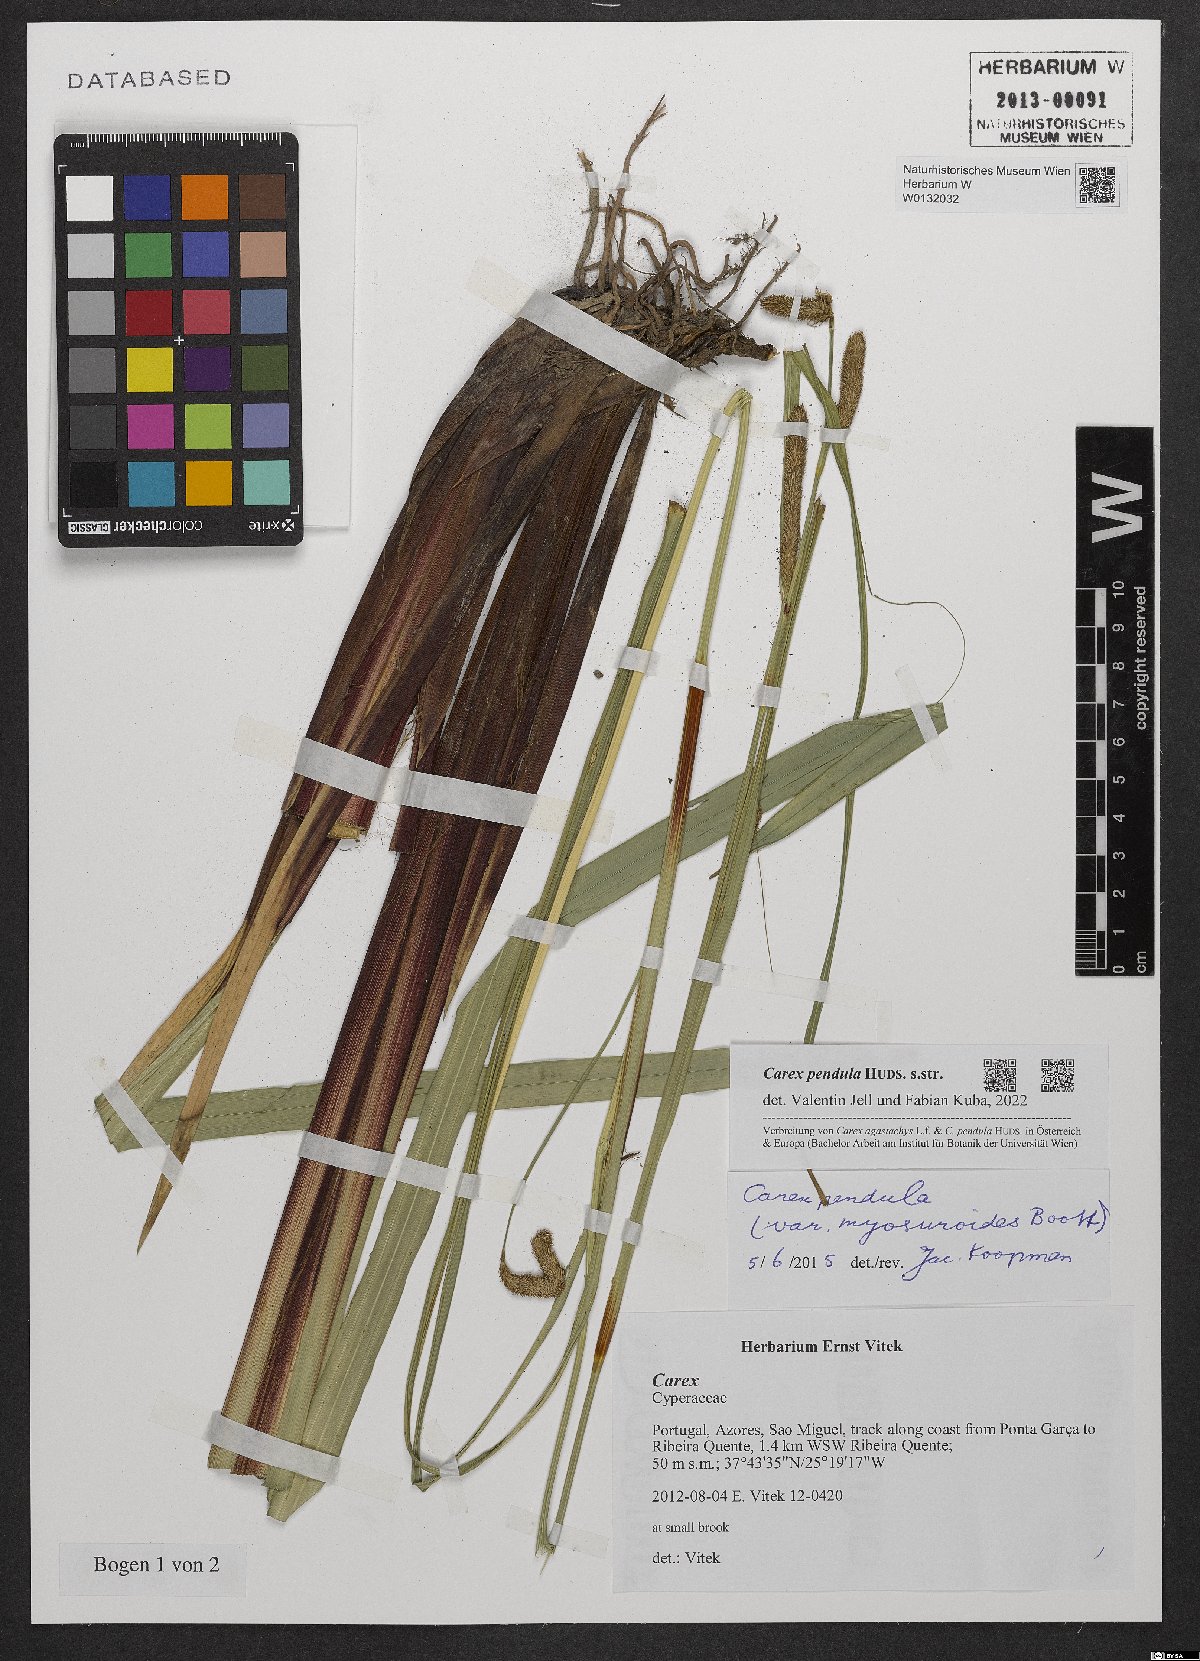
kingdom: Plantae
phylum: Tracheophyta
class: Liliopsida
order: Poales
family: Cyperaceae
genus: Carex
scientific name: Carex pendula
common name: Pendulous sedge
